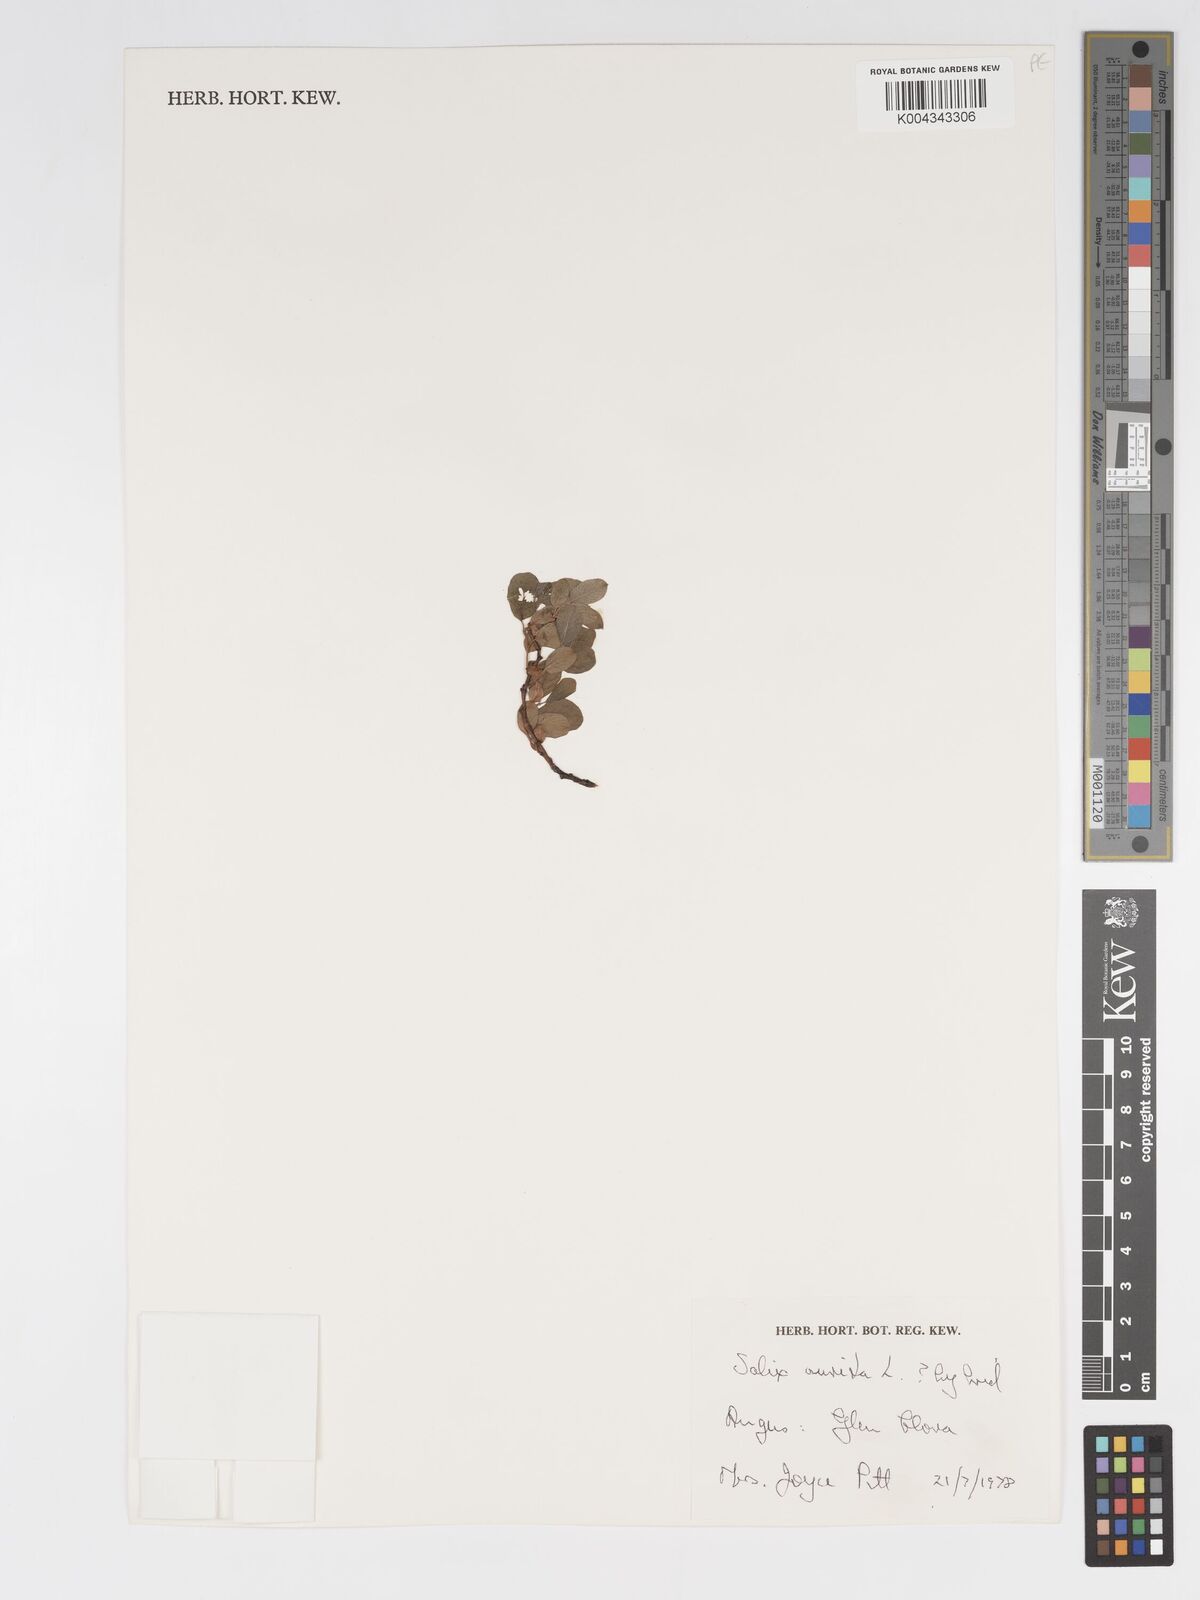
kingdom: Plantae
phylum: Tracheophyta
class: Magnoliopsida
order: Malpighiales
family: Salicaceae
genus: Salix
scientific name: Salix aurita
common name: Eared willow
